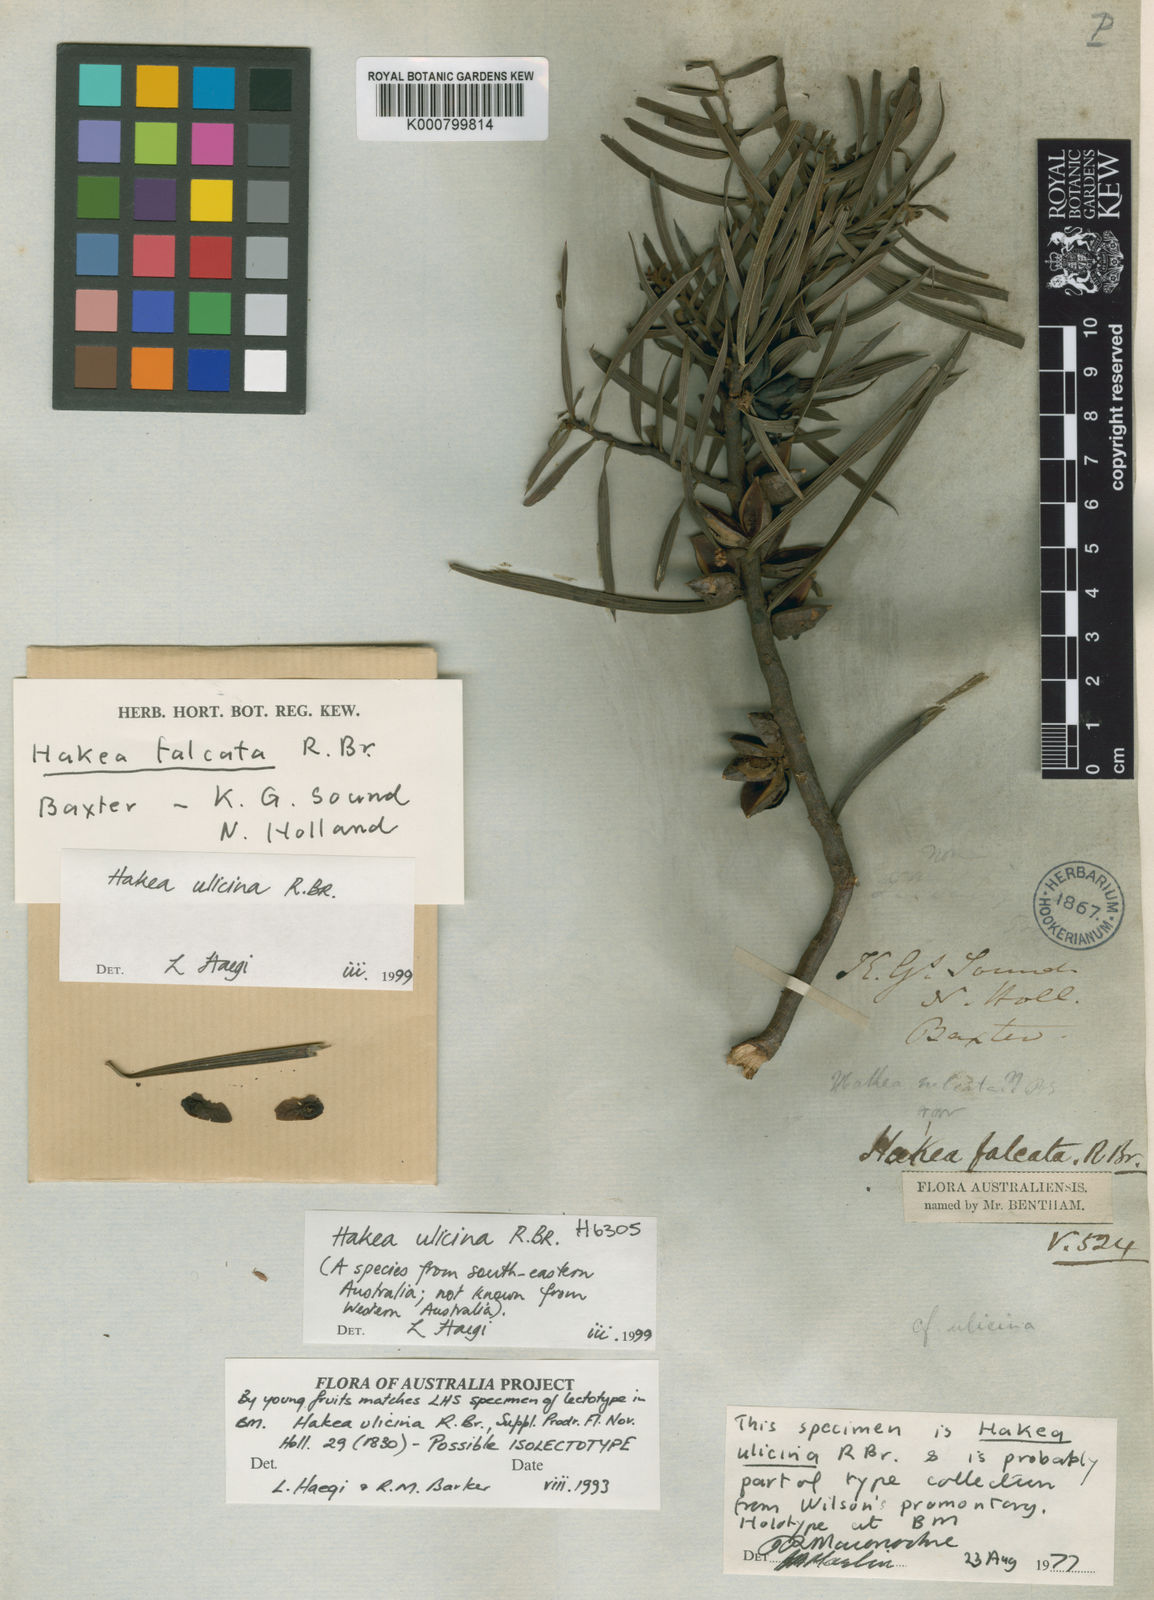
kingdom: Plantae
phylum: Tracheophyta
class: Magnoliopsida
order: Proteales
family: Proteaceae
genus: Hakea
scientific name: Hakea ulicina
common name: Furze hakea
